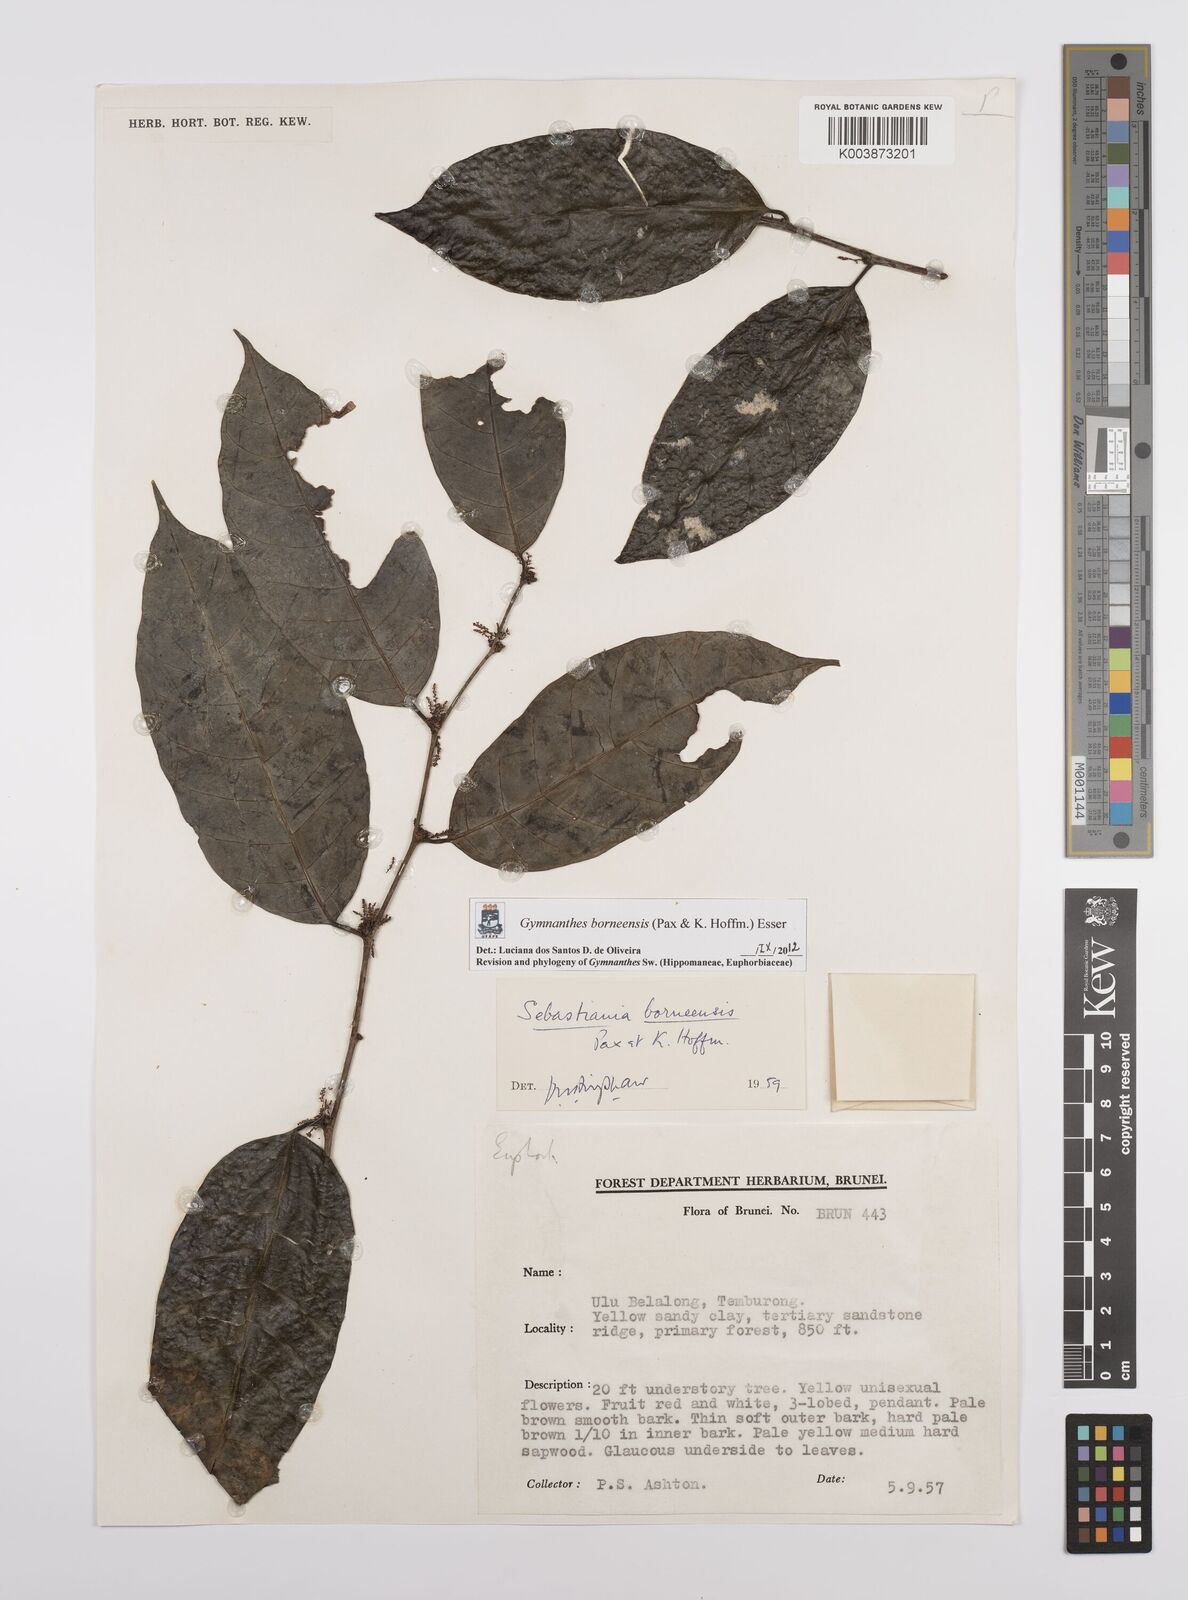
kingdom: Plantae
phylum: Tracheophyta
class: Magnoliopsida
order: Malpighiales
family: Euphorbiaceae
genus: Gymnanthes
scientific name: Gymnanthes borneensis
